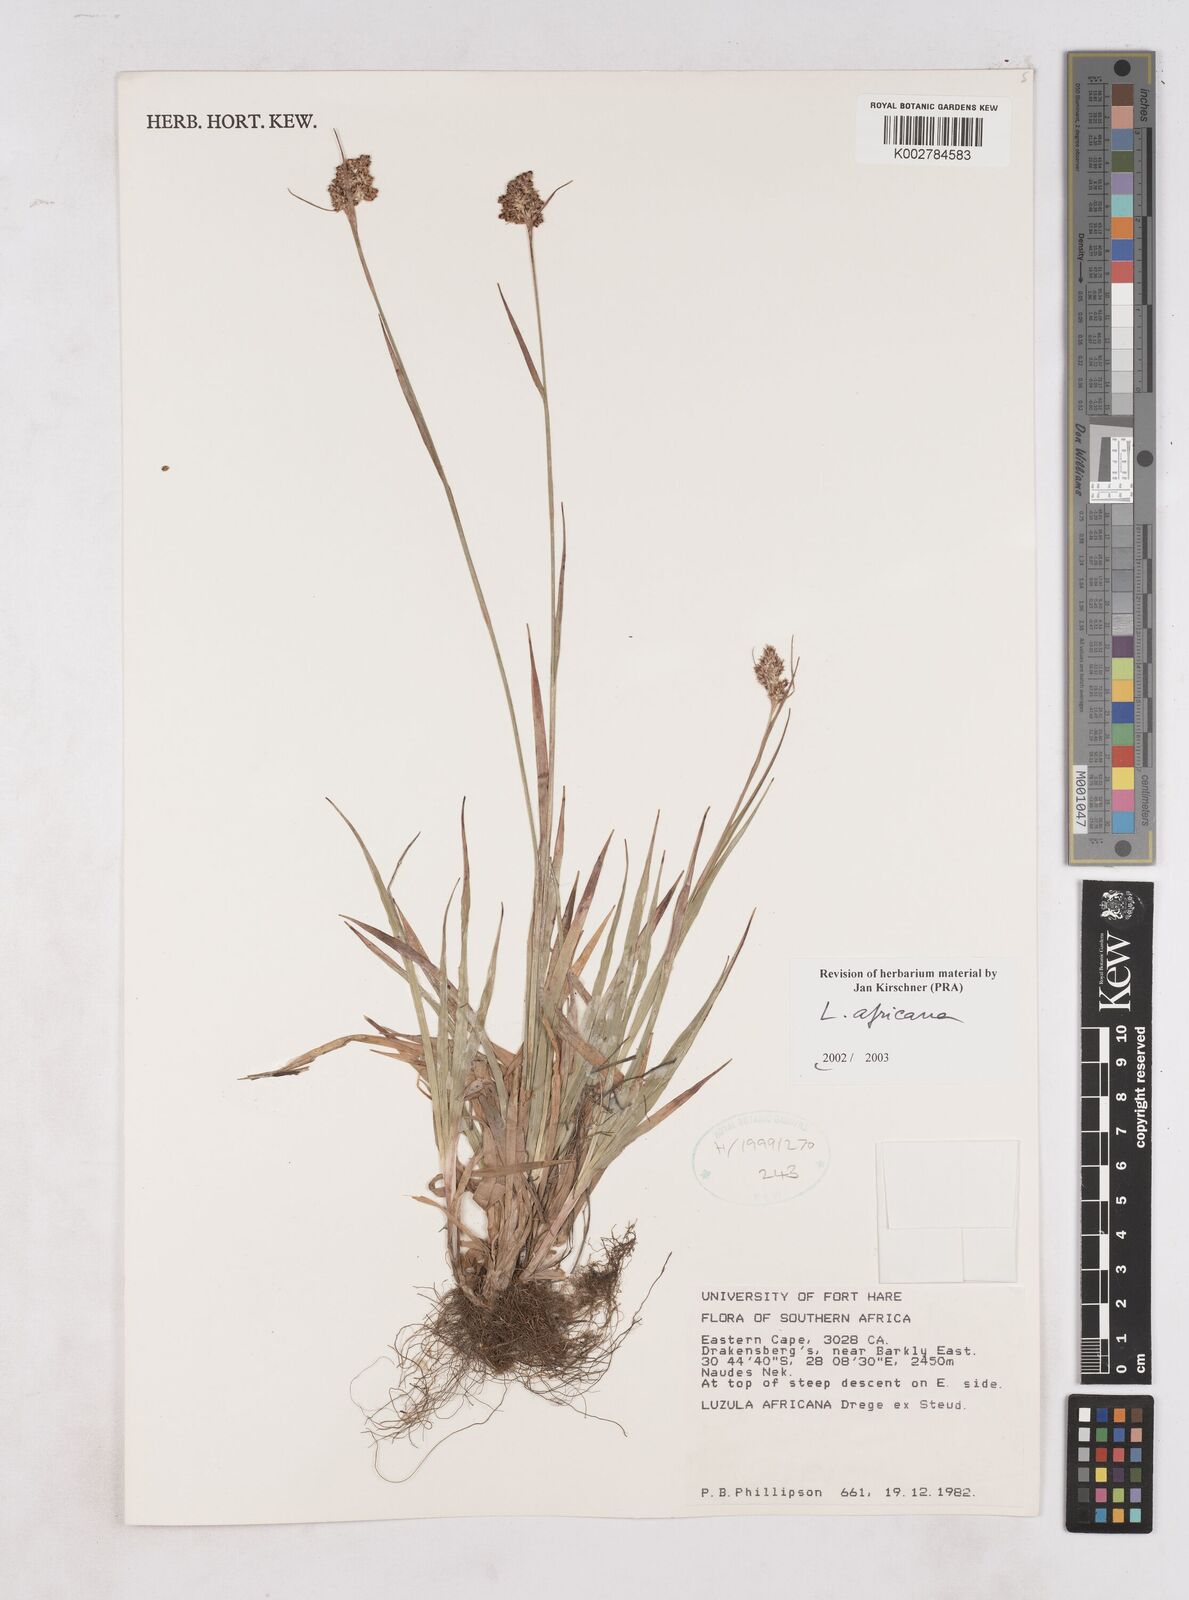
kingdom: Plantae
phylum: Tracheophyta
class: Liliopsida
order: Poales
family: Juncaceae
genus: Luzula
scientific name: Luzula africana
